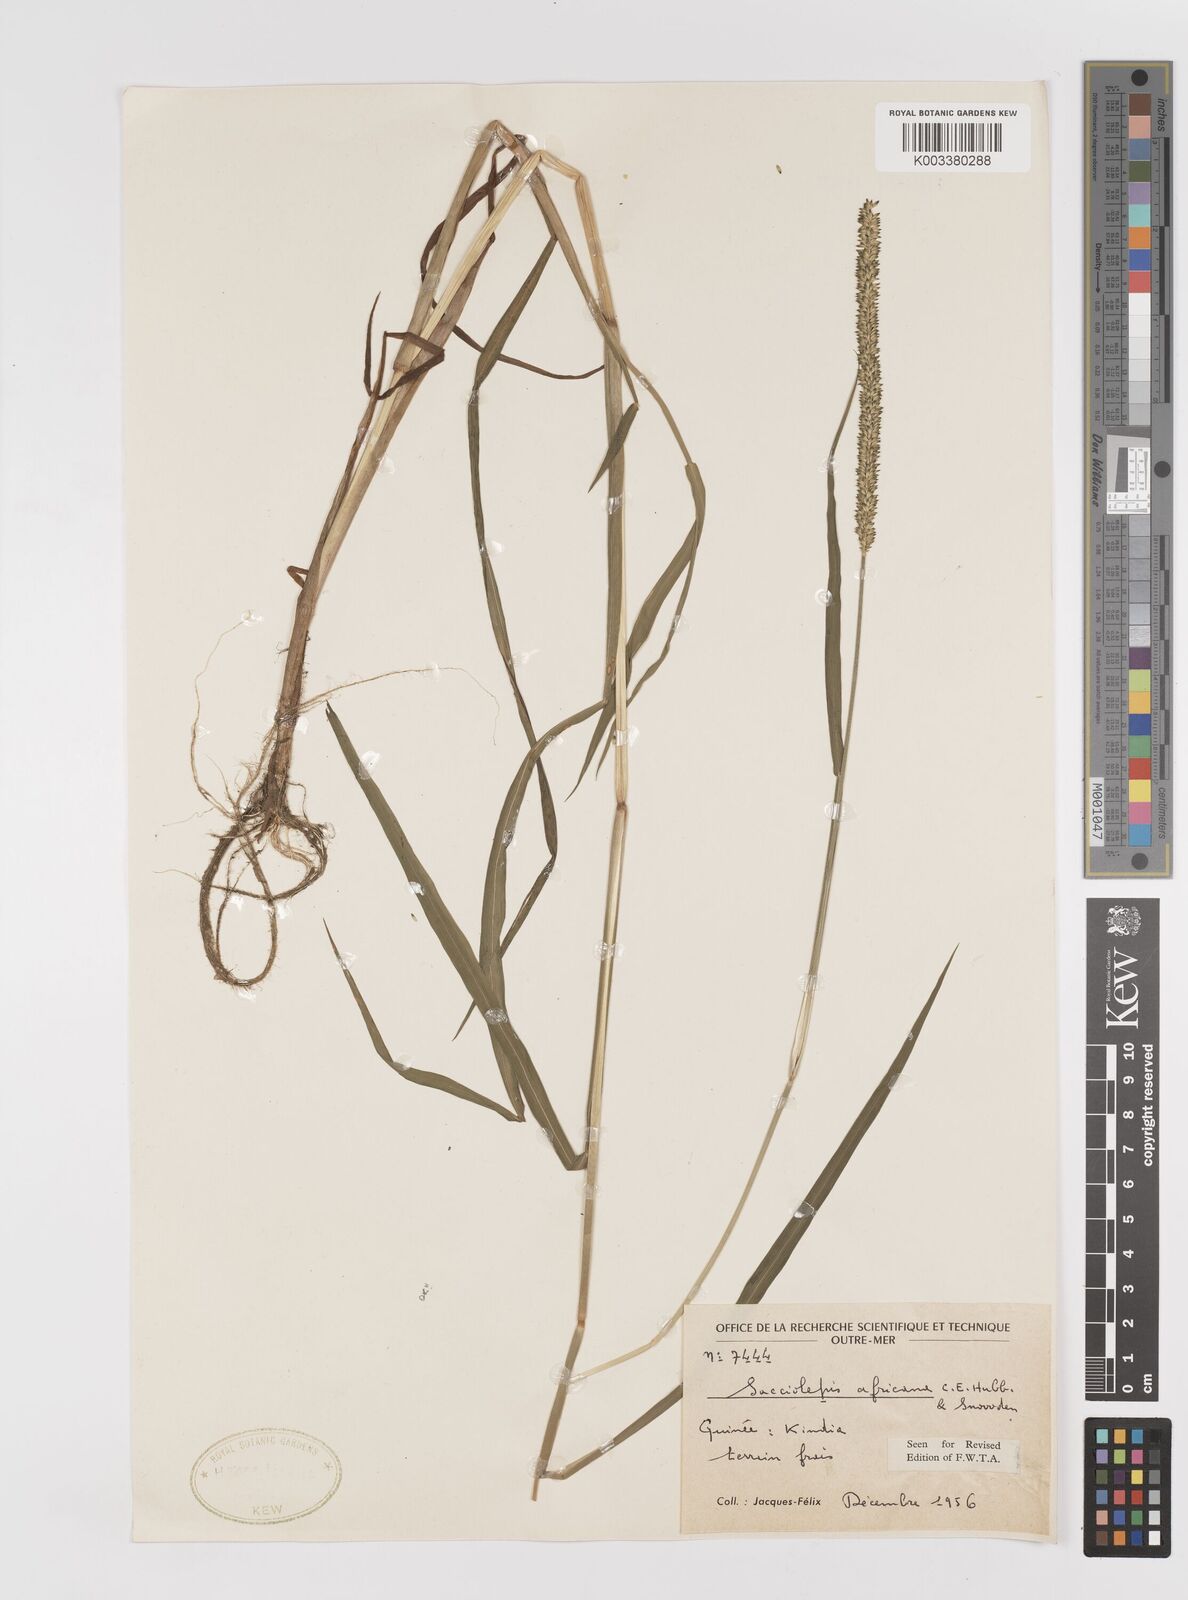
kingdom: Plantae
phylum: Tracheophyta
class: Liliopsida
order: Poales
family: Poaceae
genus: Sacciolepis
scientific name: Sacciolepis africana
